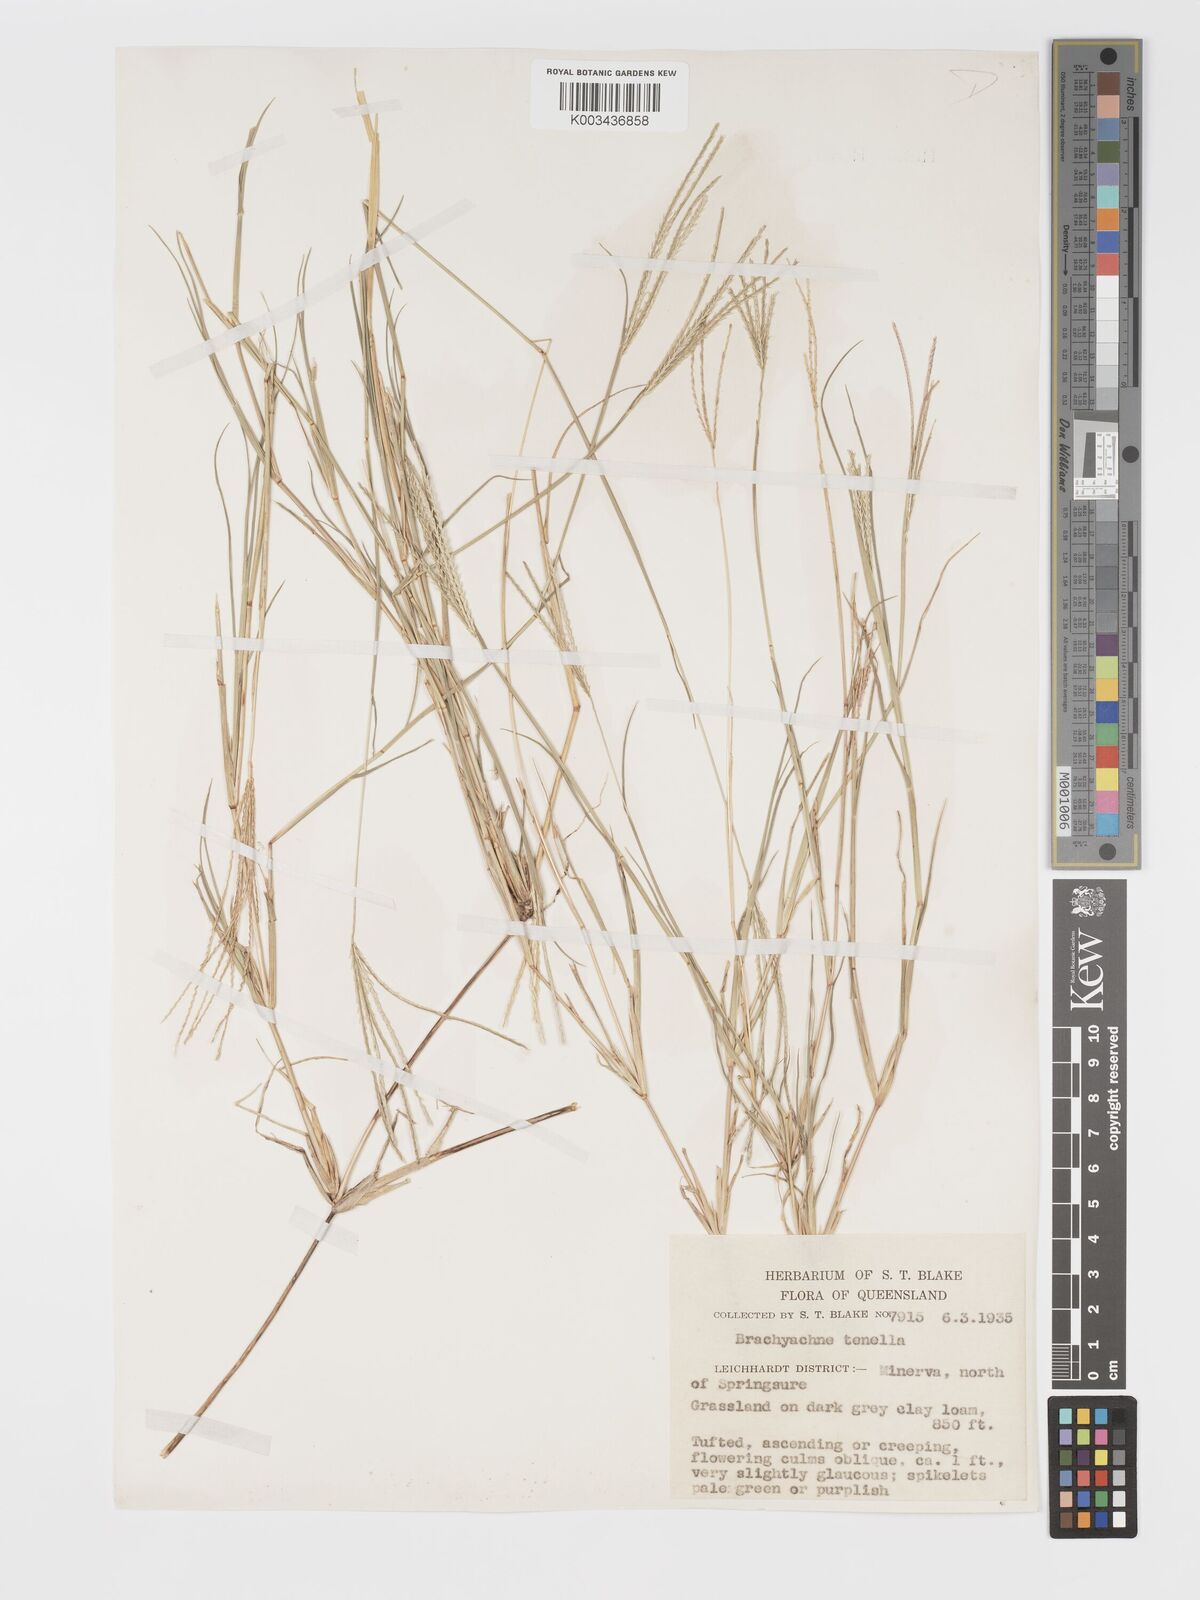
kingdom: Plantae
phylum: Tracheophyta
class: Liliopsida
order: Poales
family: Poaceae
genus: Cynodon
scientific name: Cynodon tenellus
